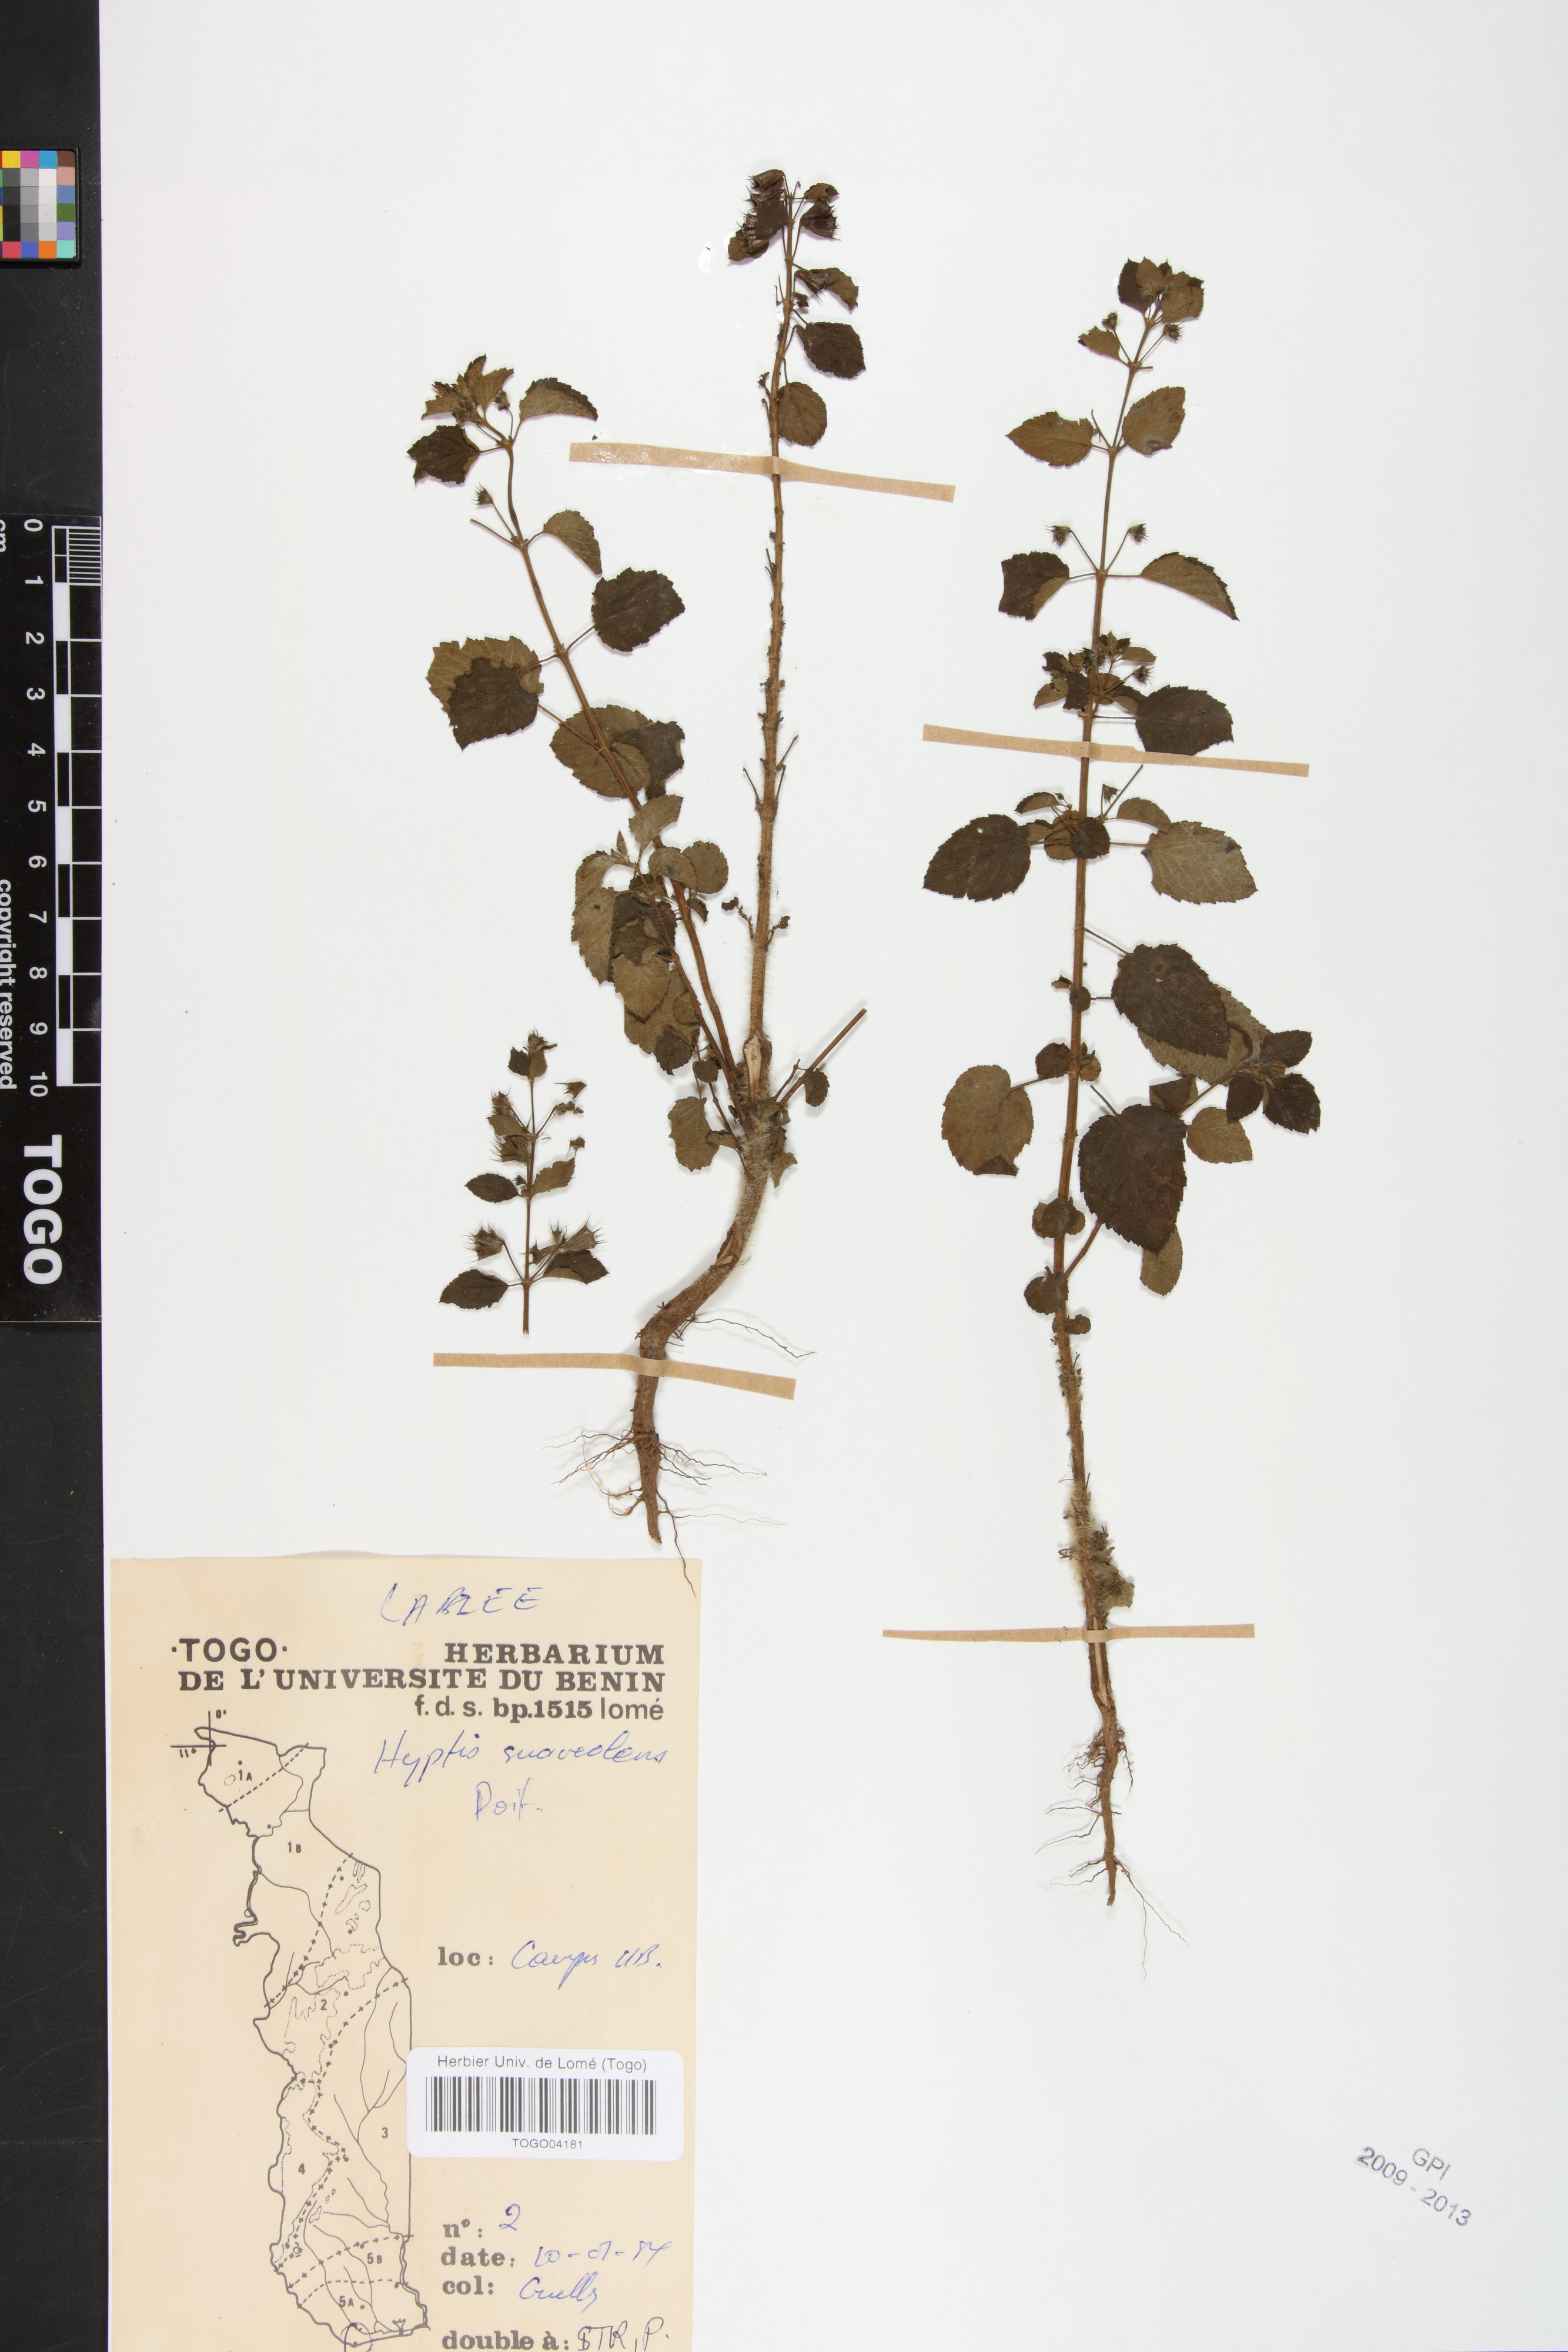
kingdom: Plantae
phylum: Tracheophyta
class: Magnoliopsida
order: Lamiales
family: Lamiaceae
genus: Mesosphaerum
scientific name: Mesosphaerum suaveolens
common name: Pignut
